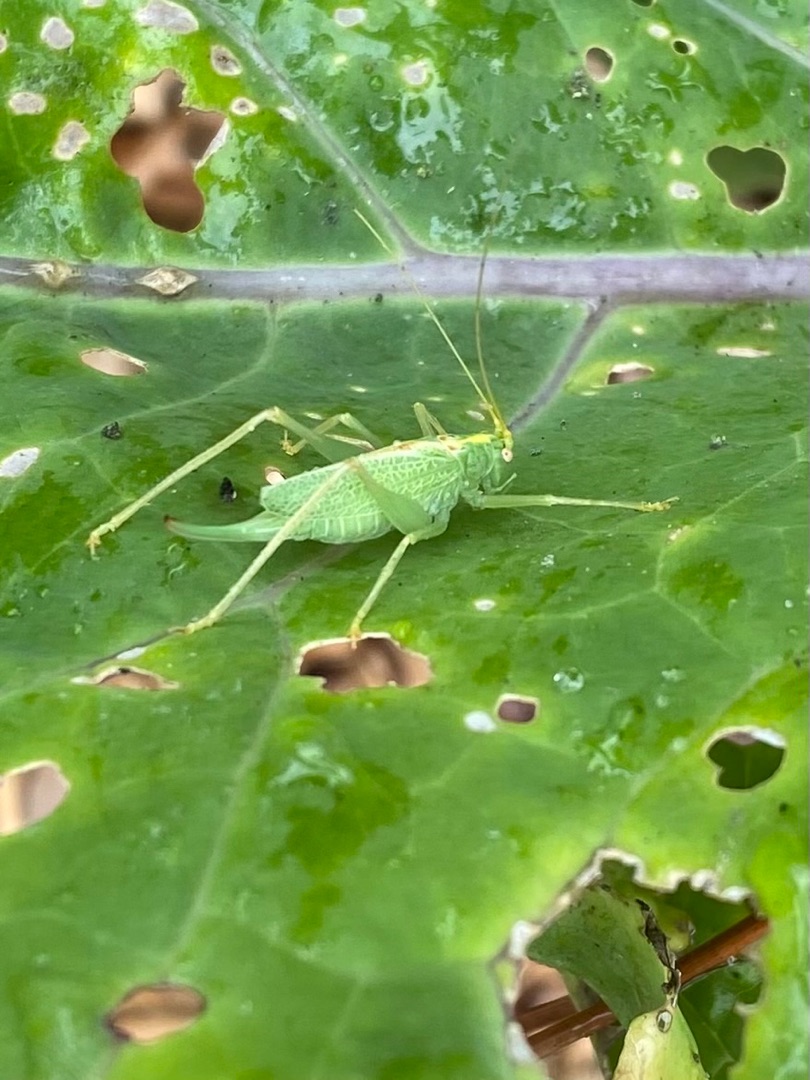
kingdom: Animalia
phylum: Arthropoda
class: Insecta
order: Orthoptera
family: Tettigoniidae
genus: Meconema
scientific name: Meconema thalassinum
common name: Egegræshoppe
